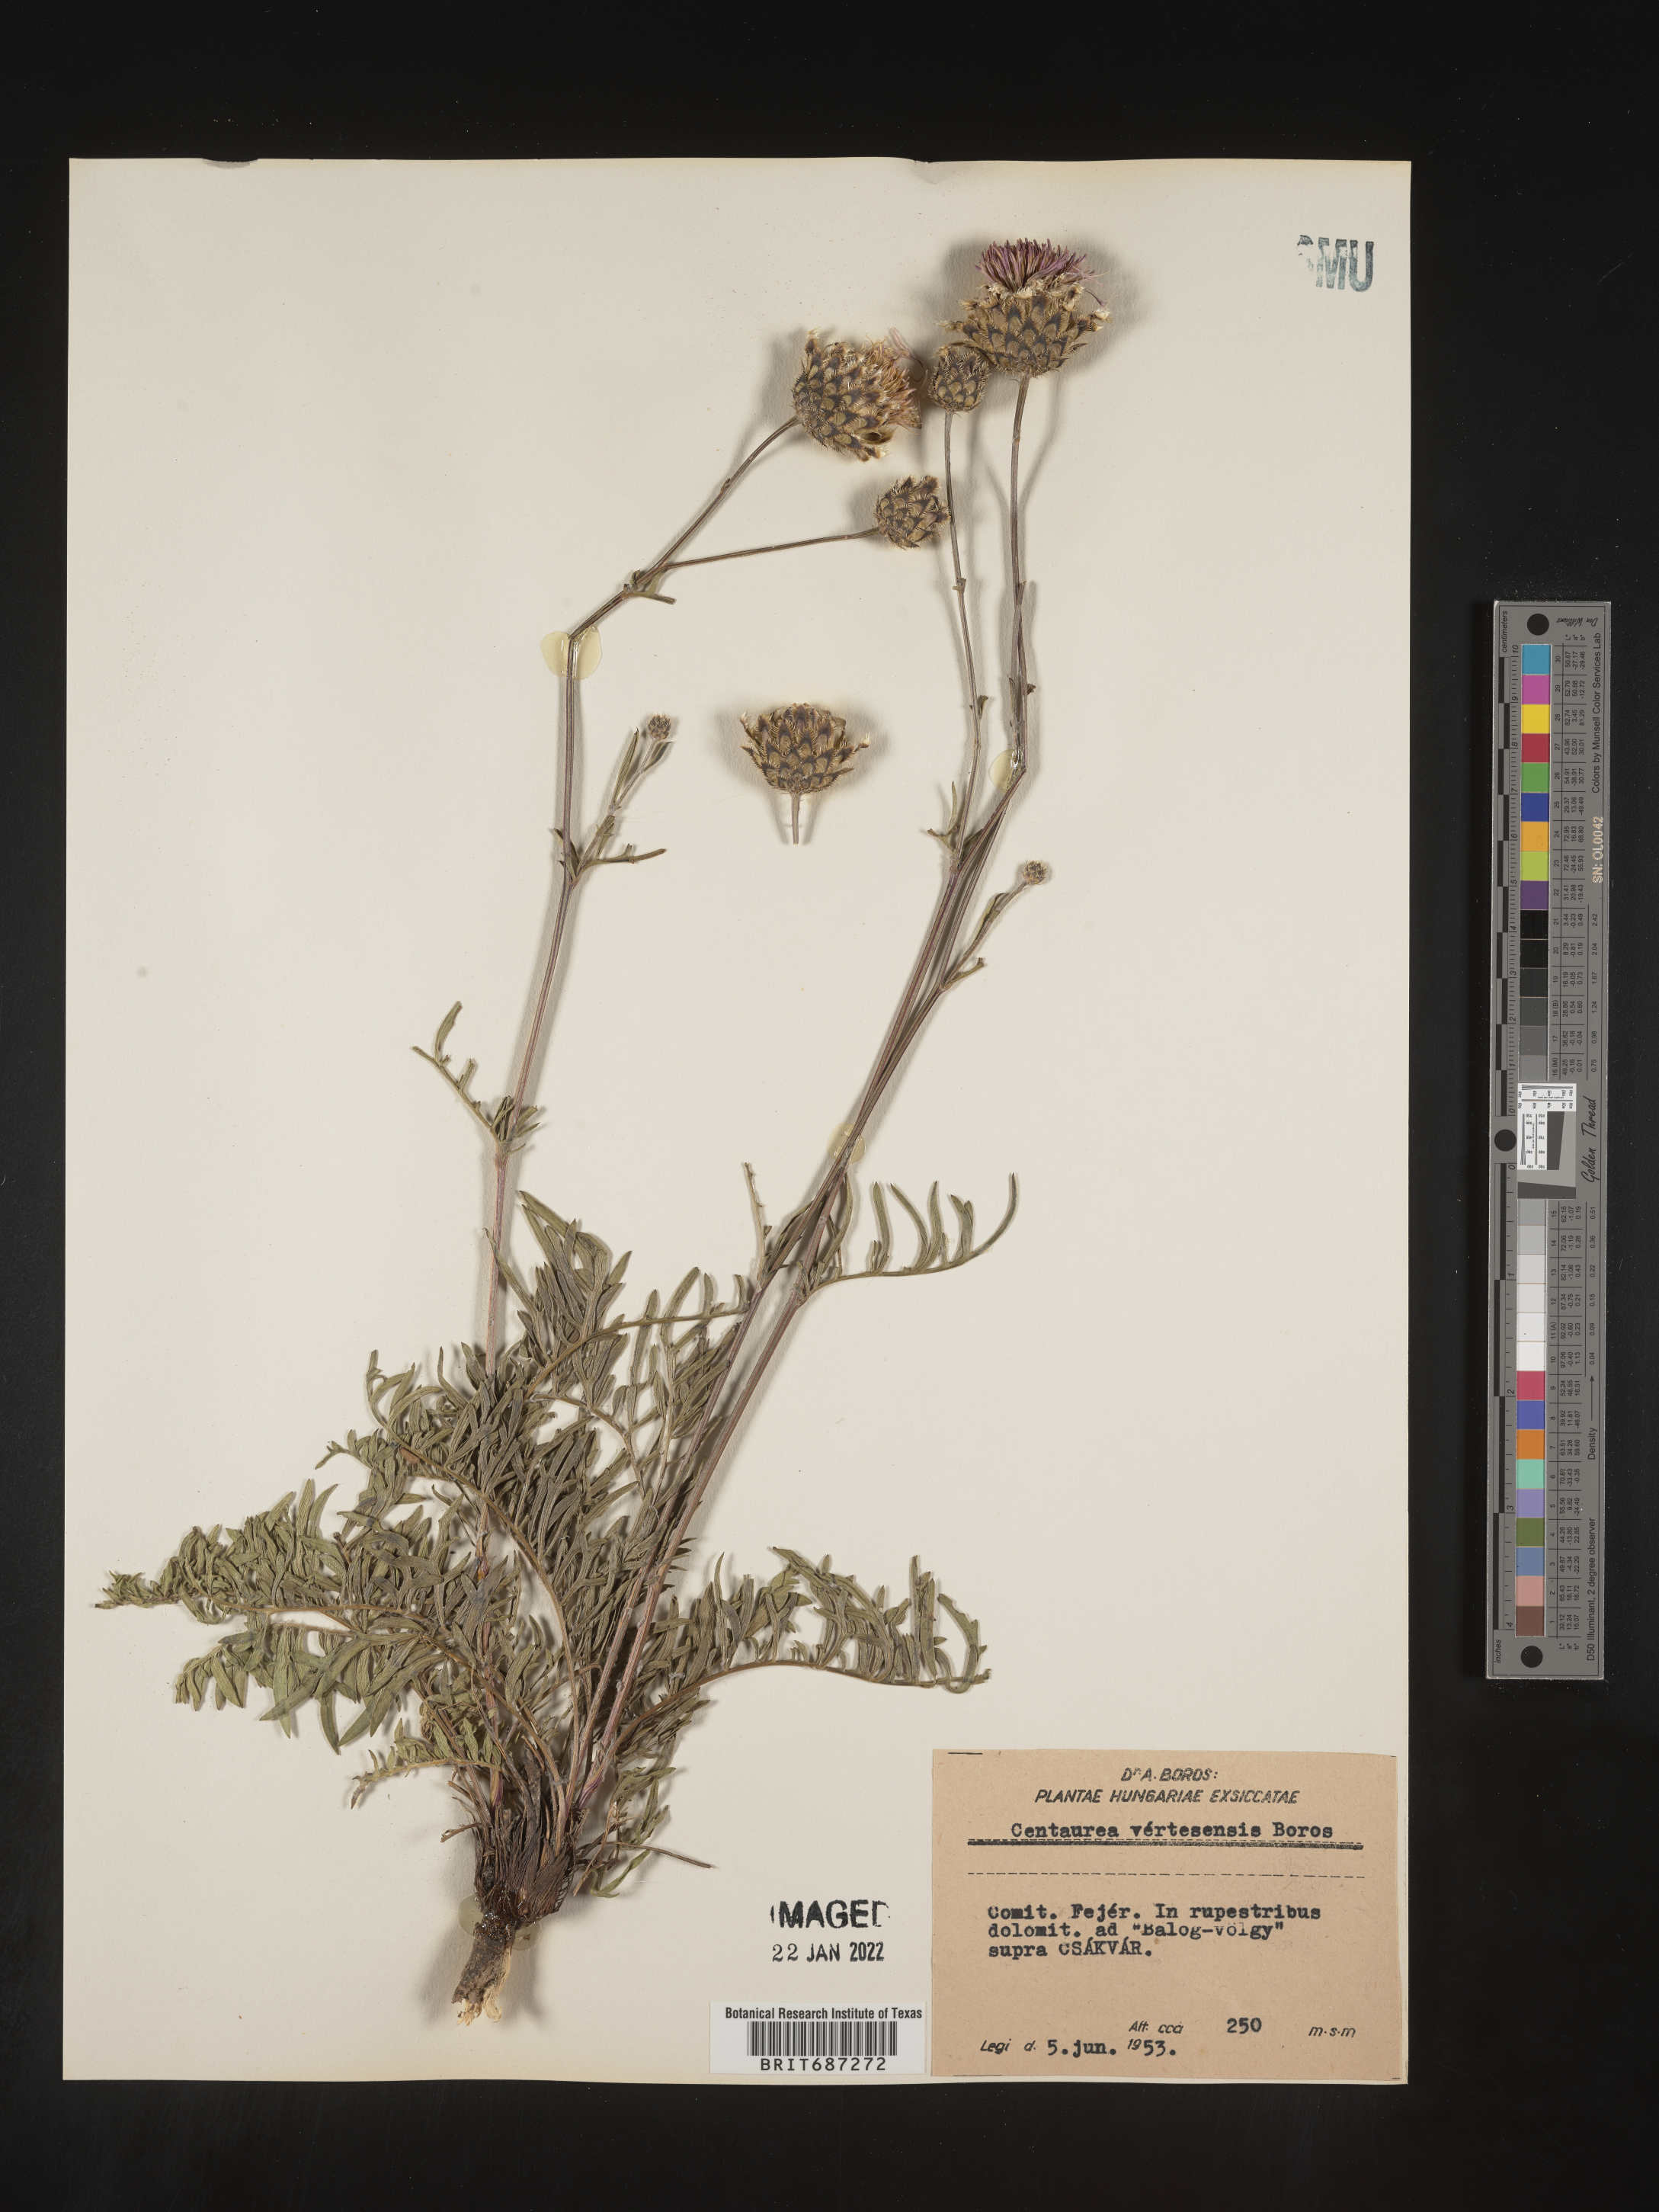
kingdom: Plantae
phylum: Tracheophyta
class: Magnoliopsida
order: Asterales
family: Asteraceae
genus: Centaurea
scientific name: Centaurea
